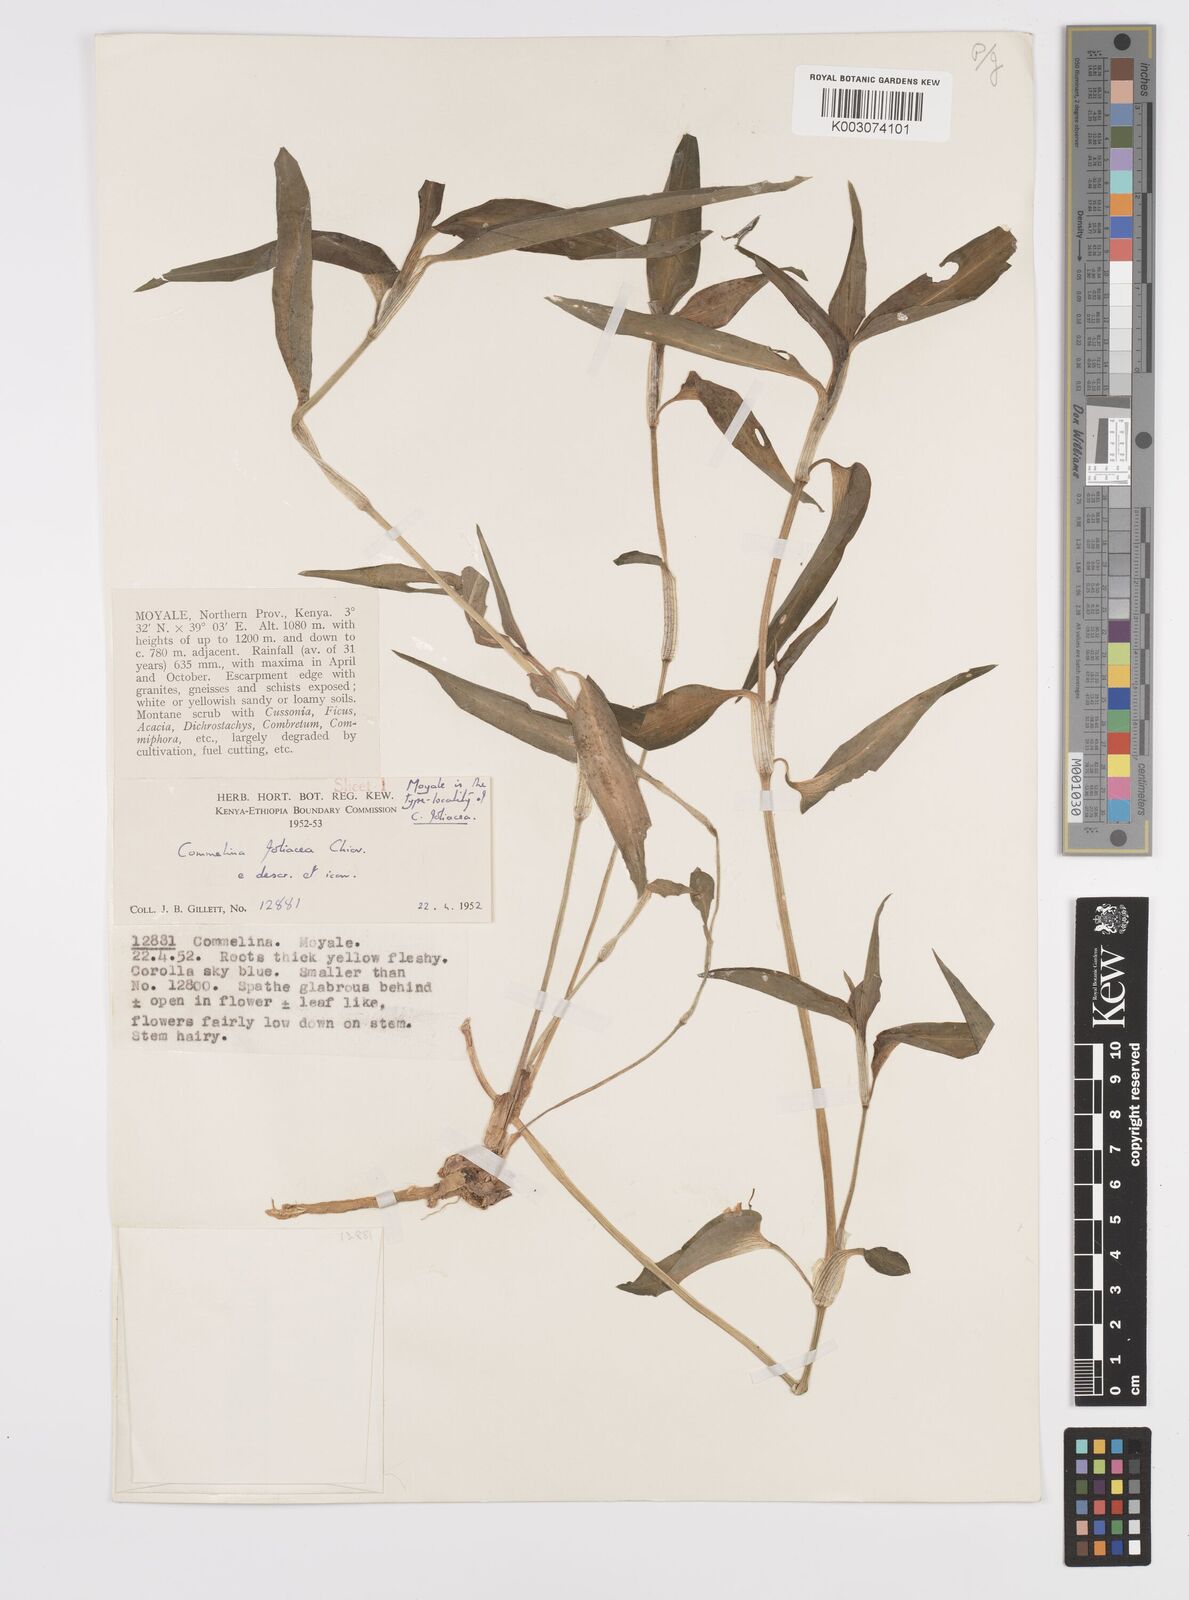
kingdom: Plantae
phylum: Tracheophyta
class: Liliopsida
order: Commelinales
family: Commelinaceae
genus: Commelina
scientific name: Commelina foliacea
